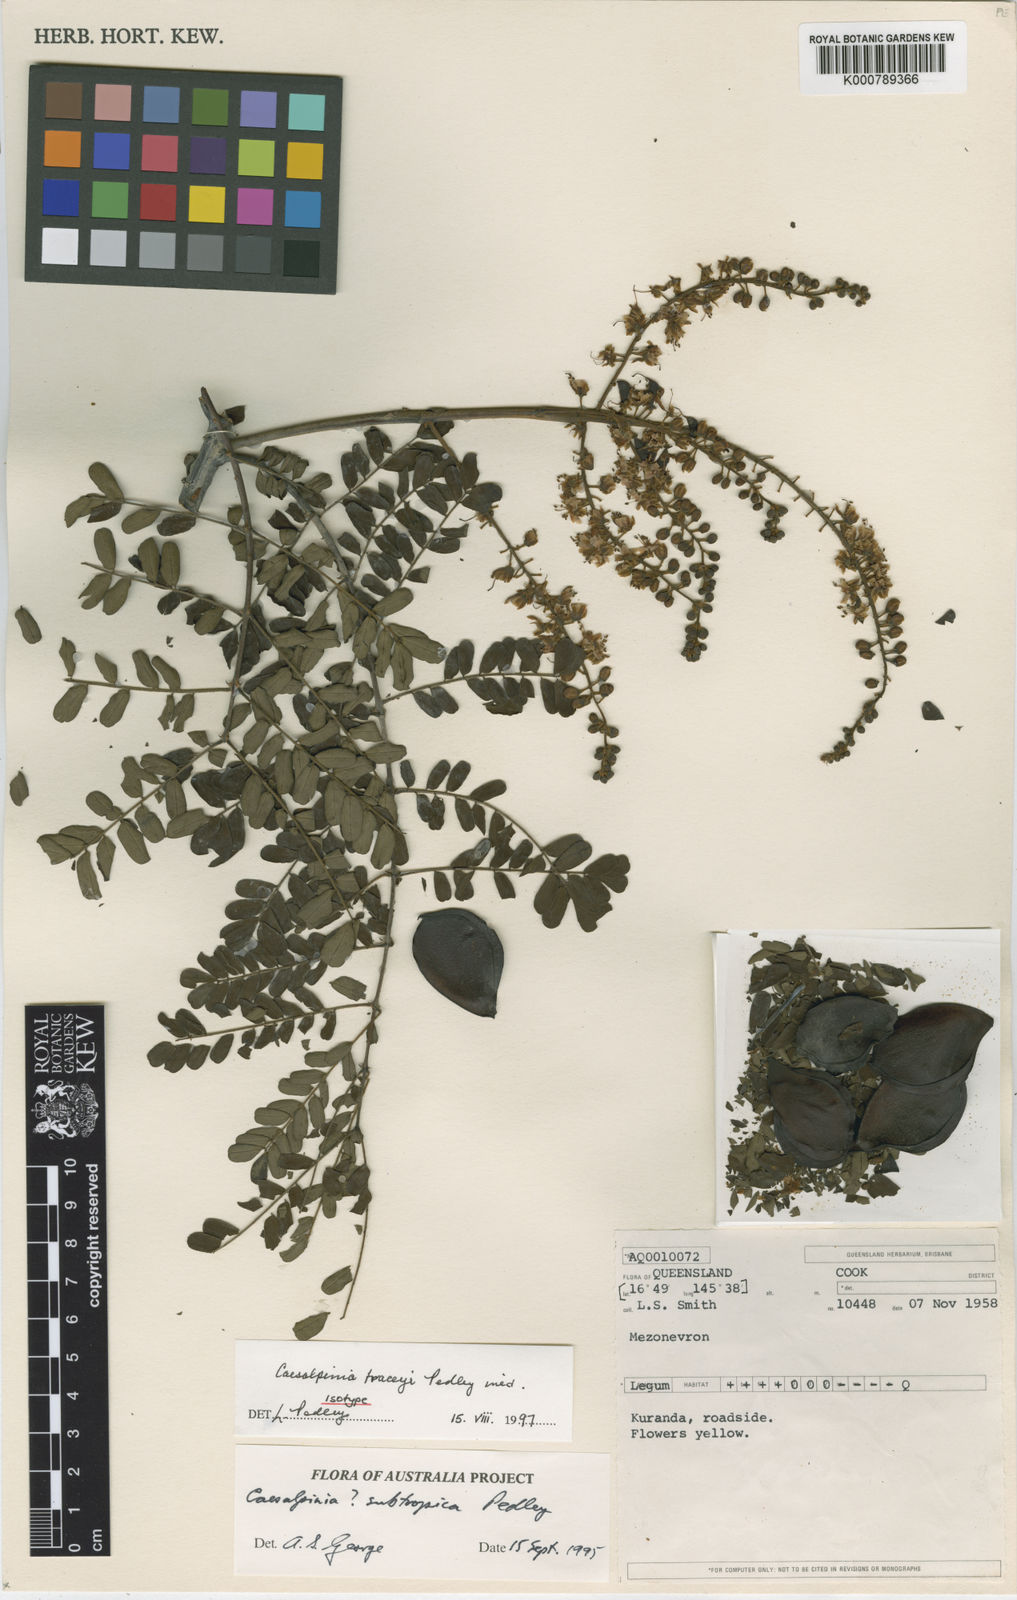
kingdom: Plantae
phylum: Tracheophyta
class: Magnoliopsida
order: Fabales
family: Fabaceae
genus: Mezoneuron
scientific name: Mezoneuron
